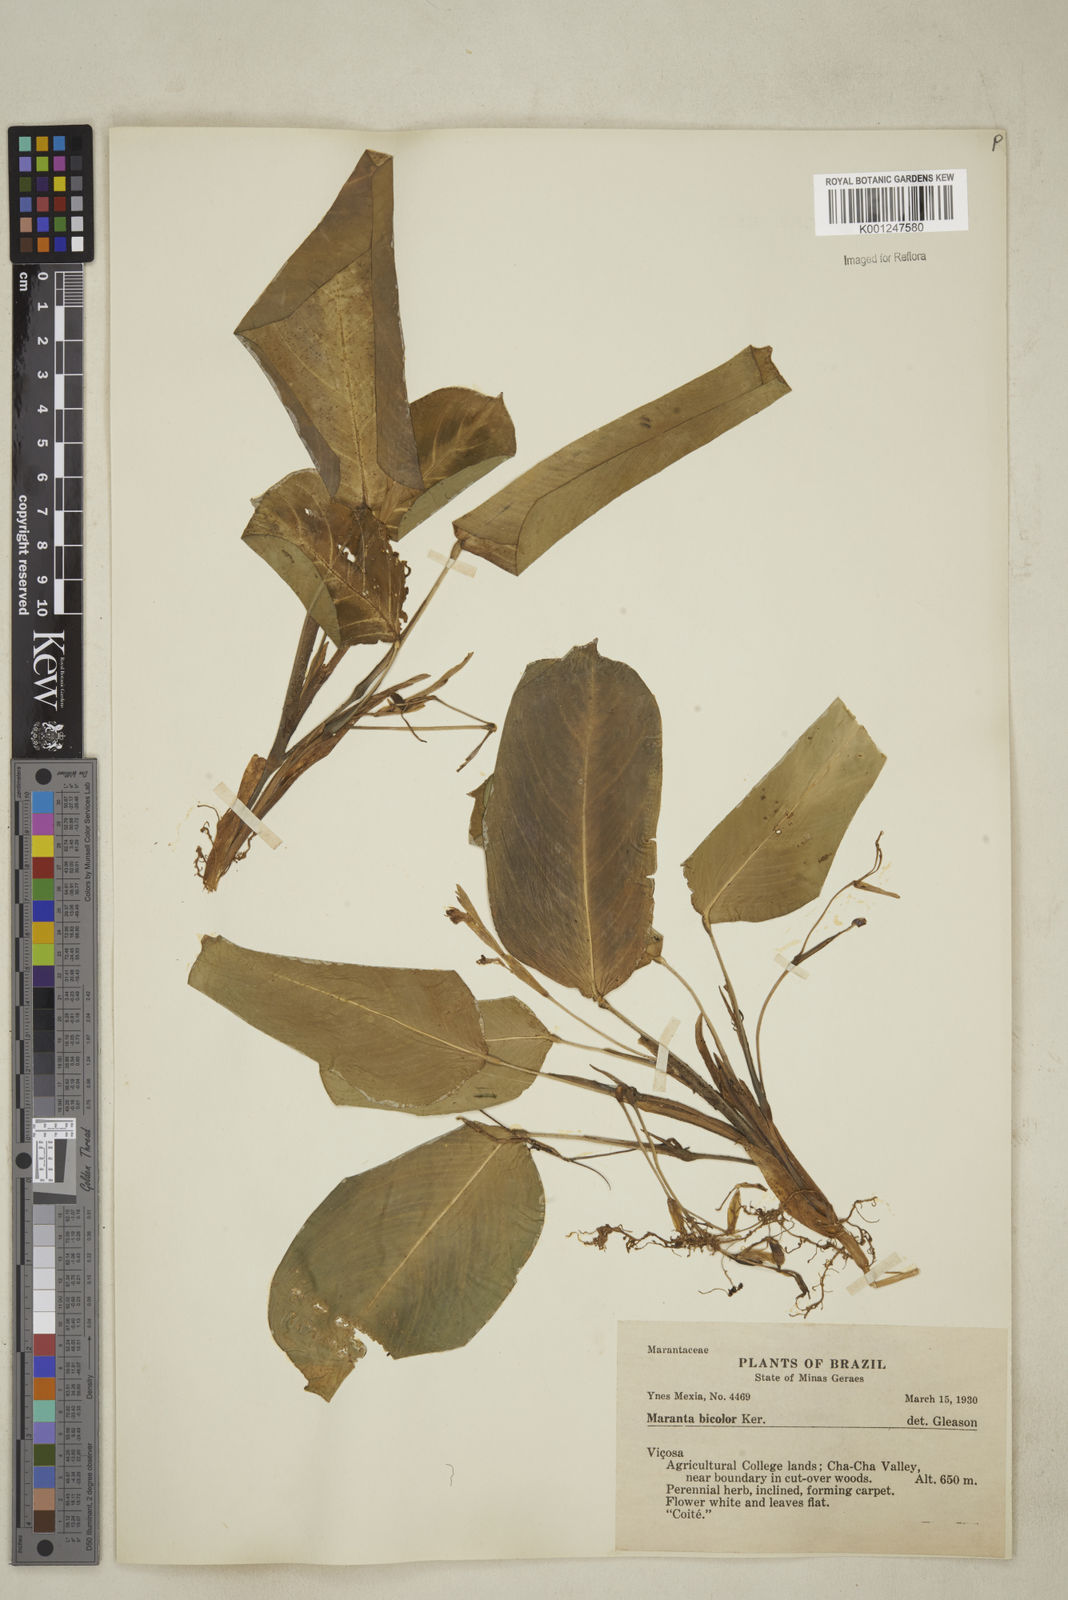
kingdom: Plantae
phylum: Tracheophyta
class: Liliopsida
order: Zingiberales
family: Marantaceae
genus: Maranta
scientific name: Maranta cristata
